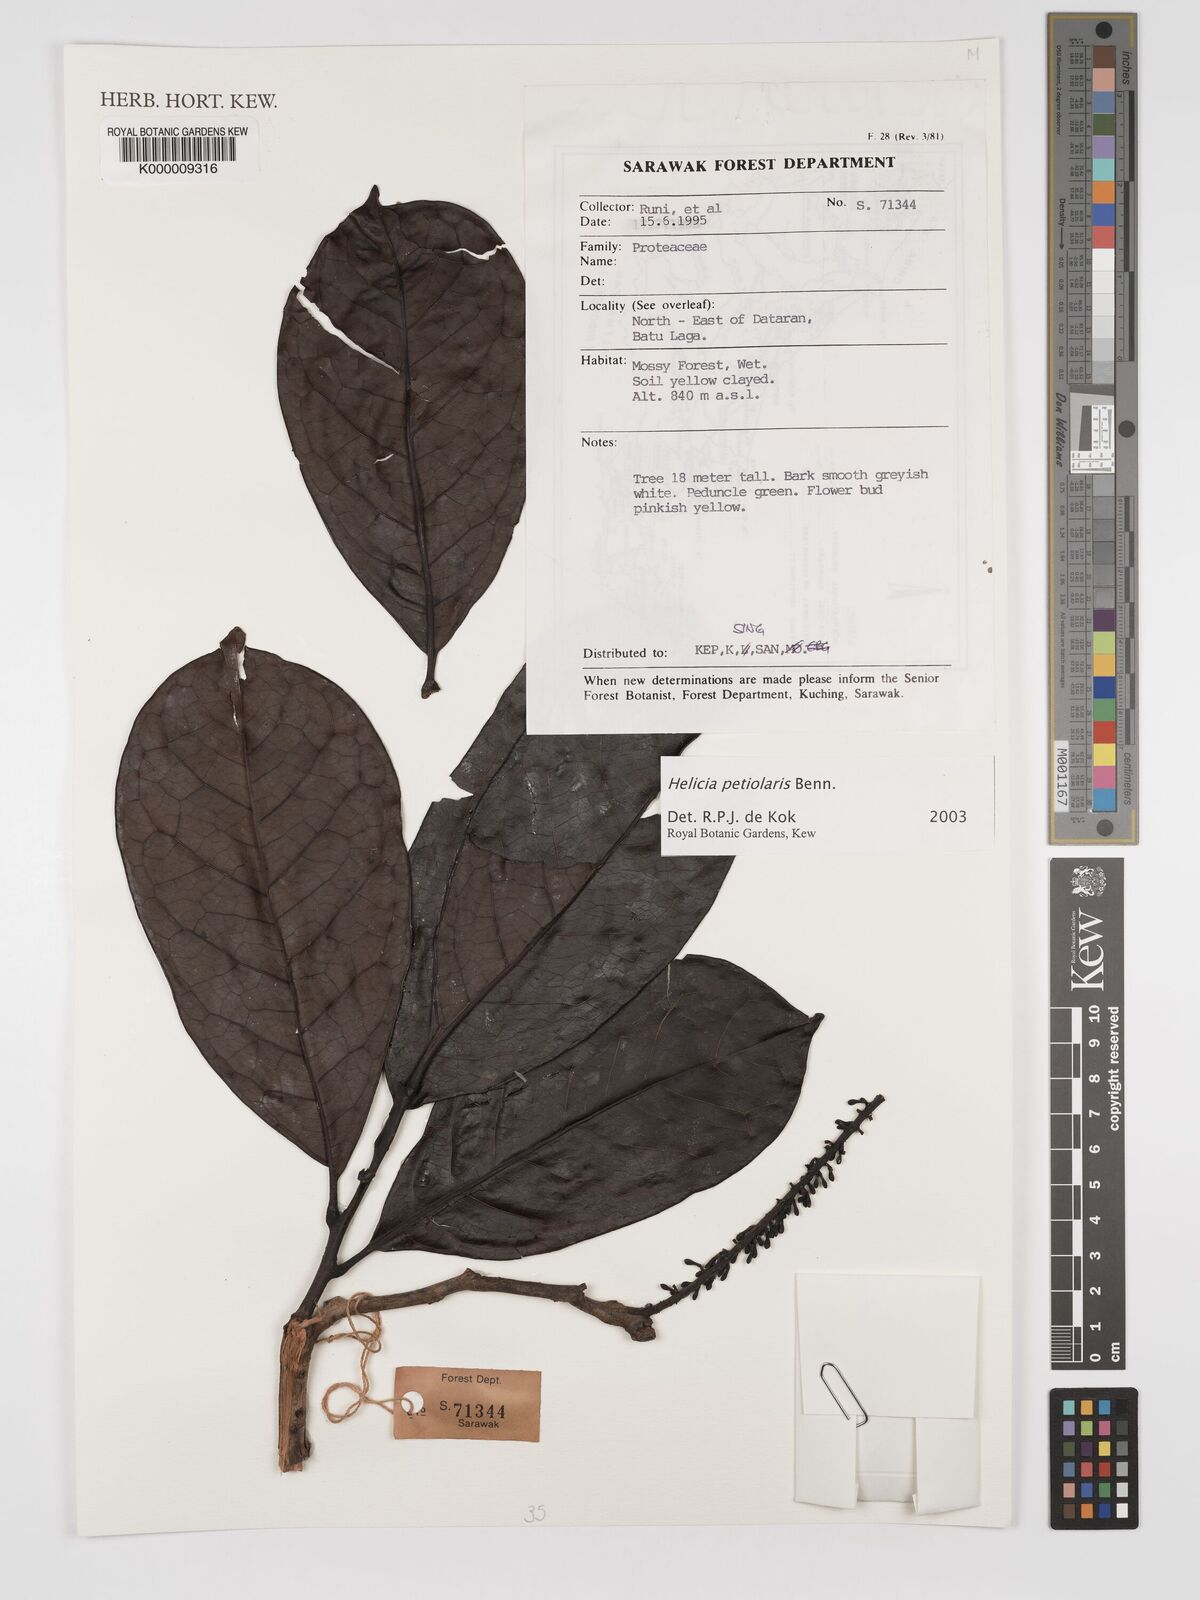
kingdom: Plantae
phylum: Tracheophyta
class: Magnoliopsida
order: Proteales
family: Proteaceae
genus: Helicia
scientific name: Helicia petiolaris
